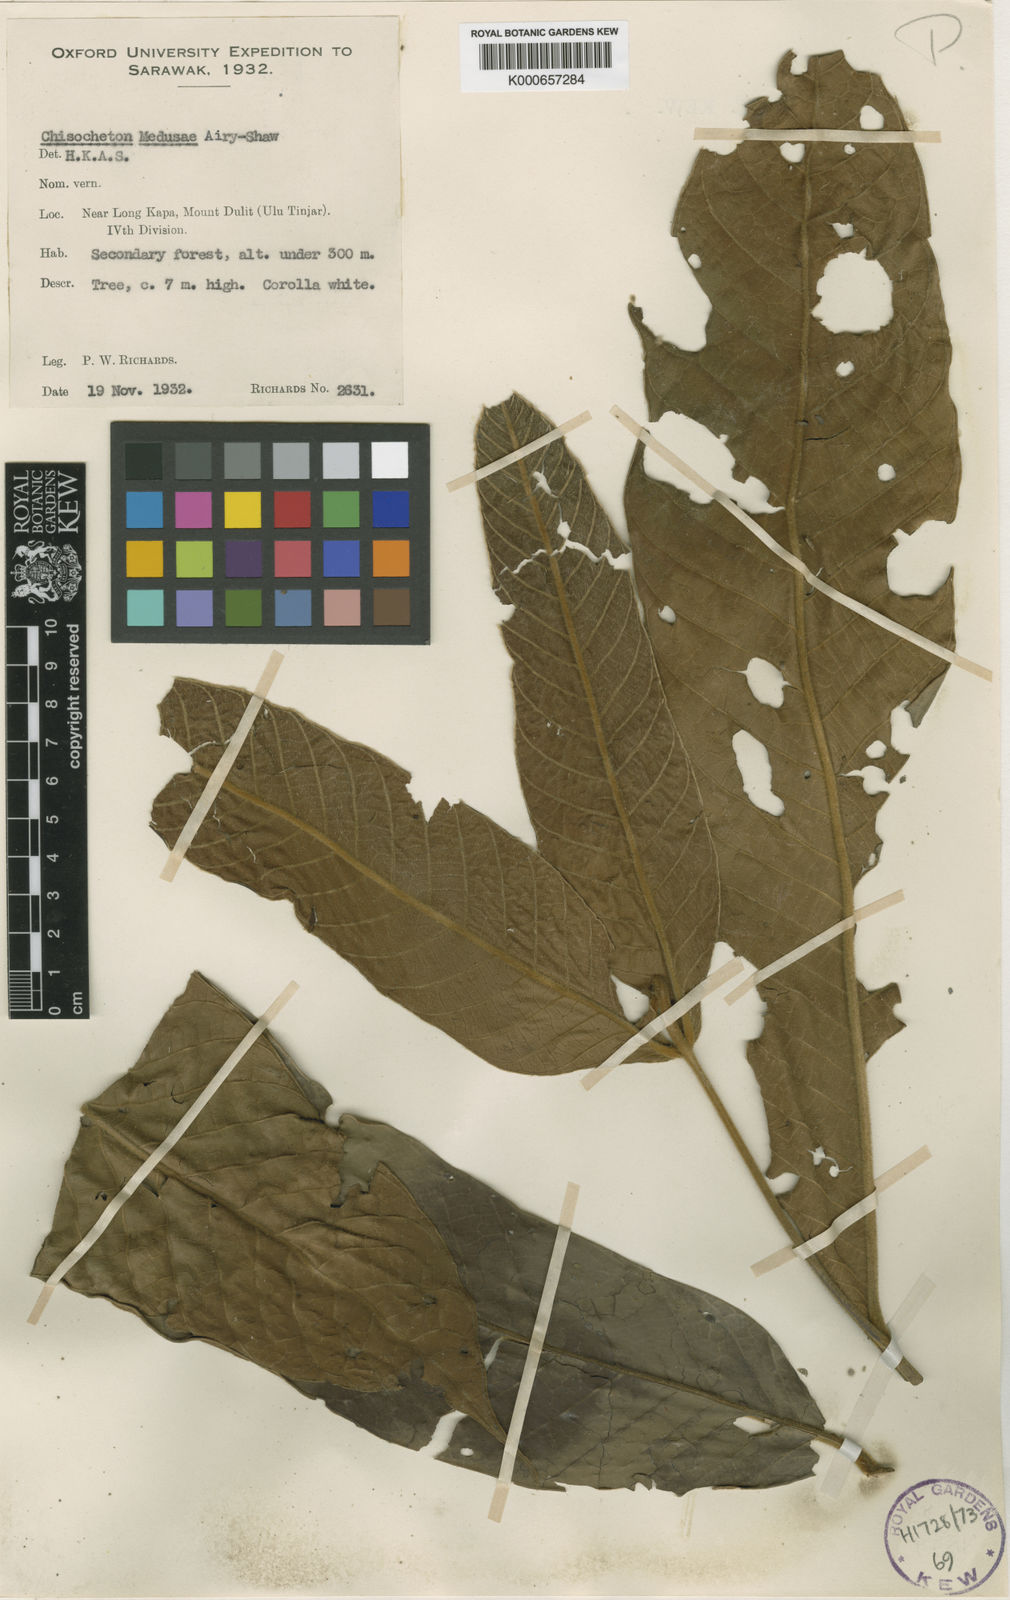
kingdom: Plantae
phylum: Tracheophyta
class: Magnoliopsida
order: Sapindales
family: Meliaceae
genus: Chisocheton
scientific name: Chisocheton medusae
